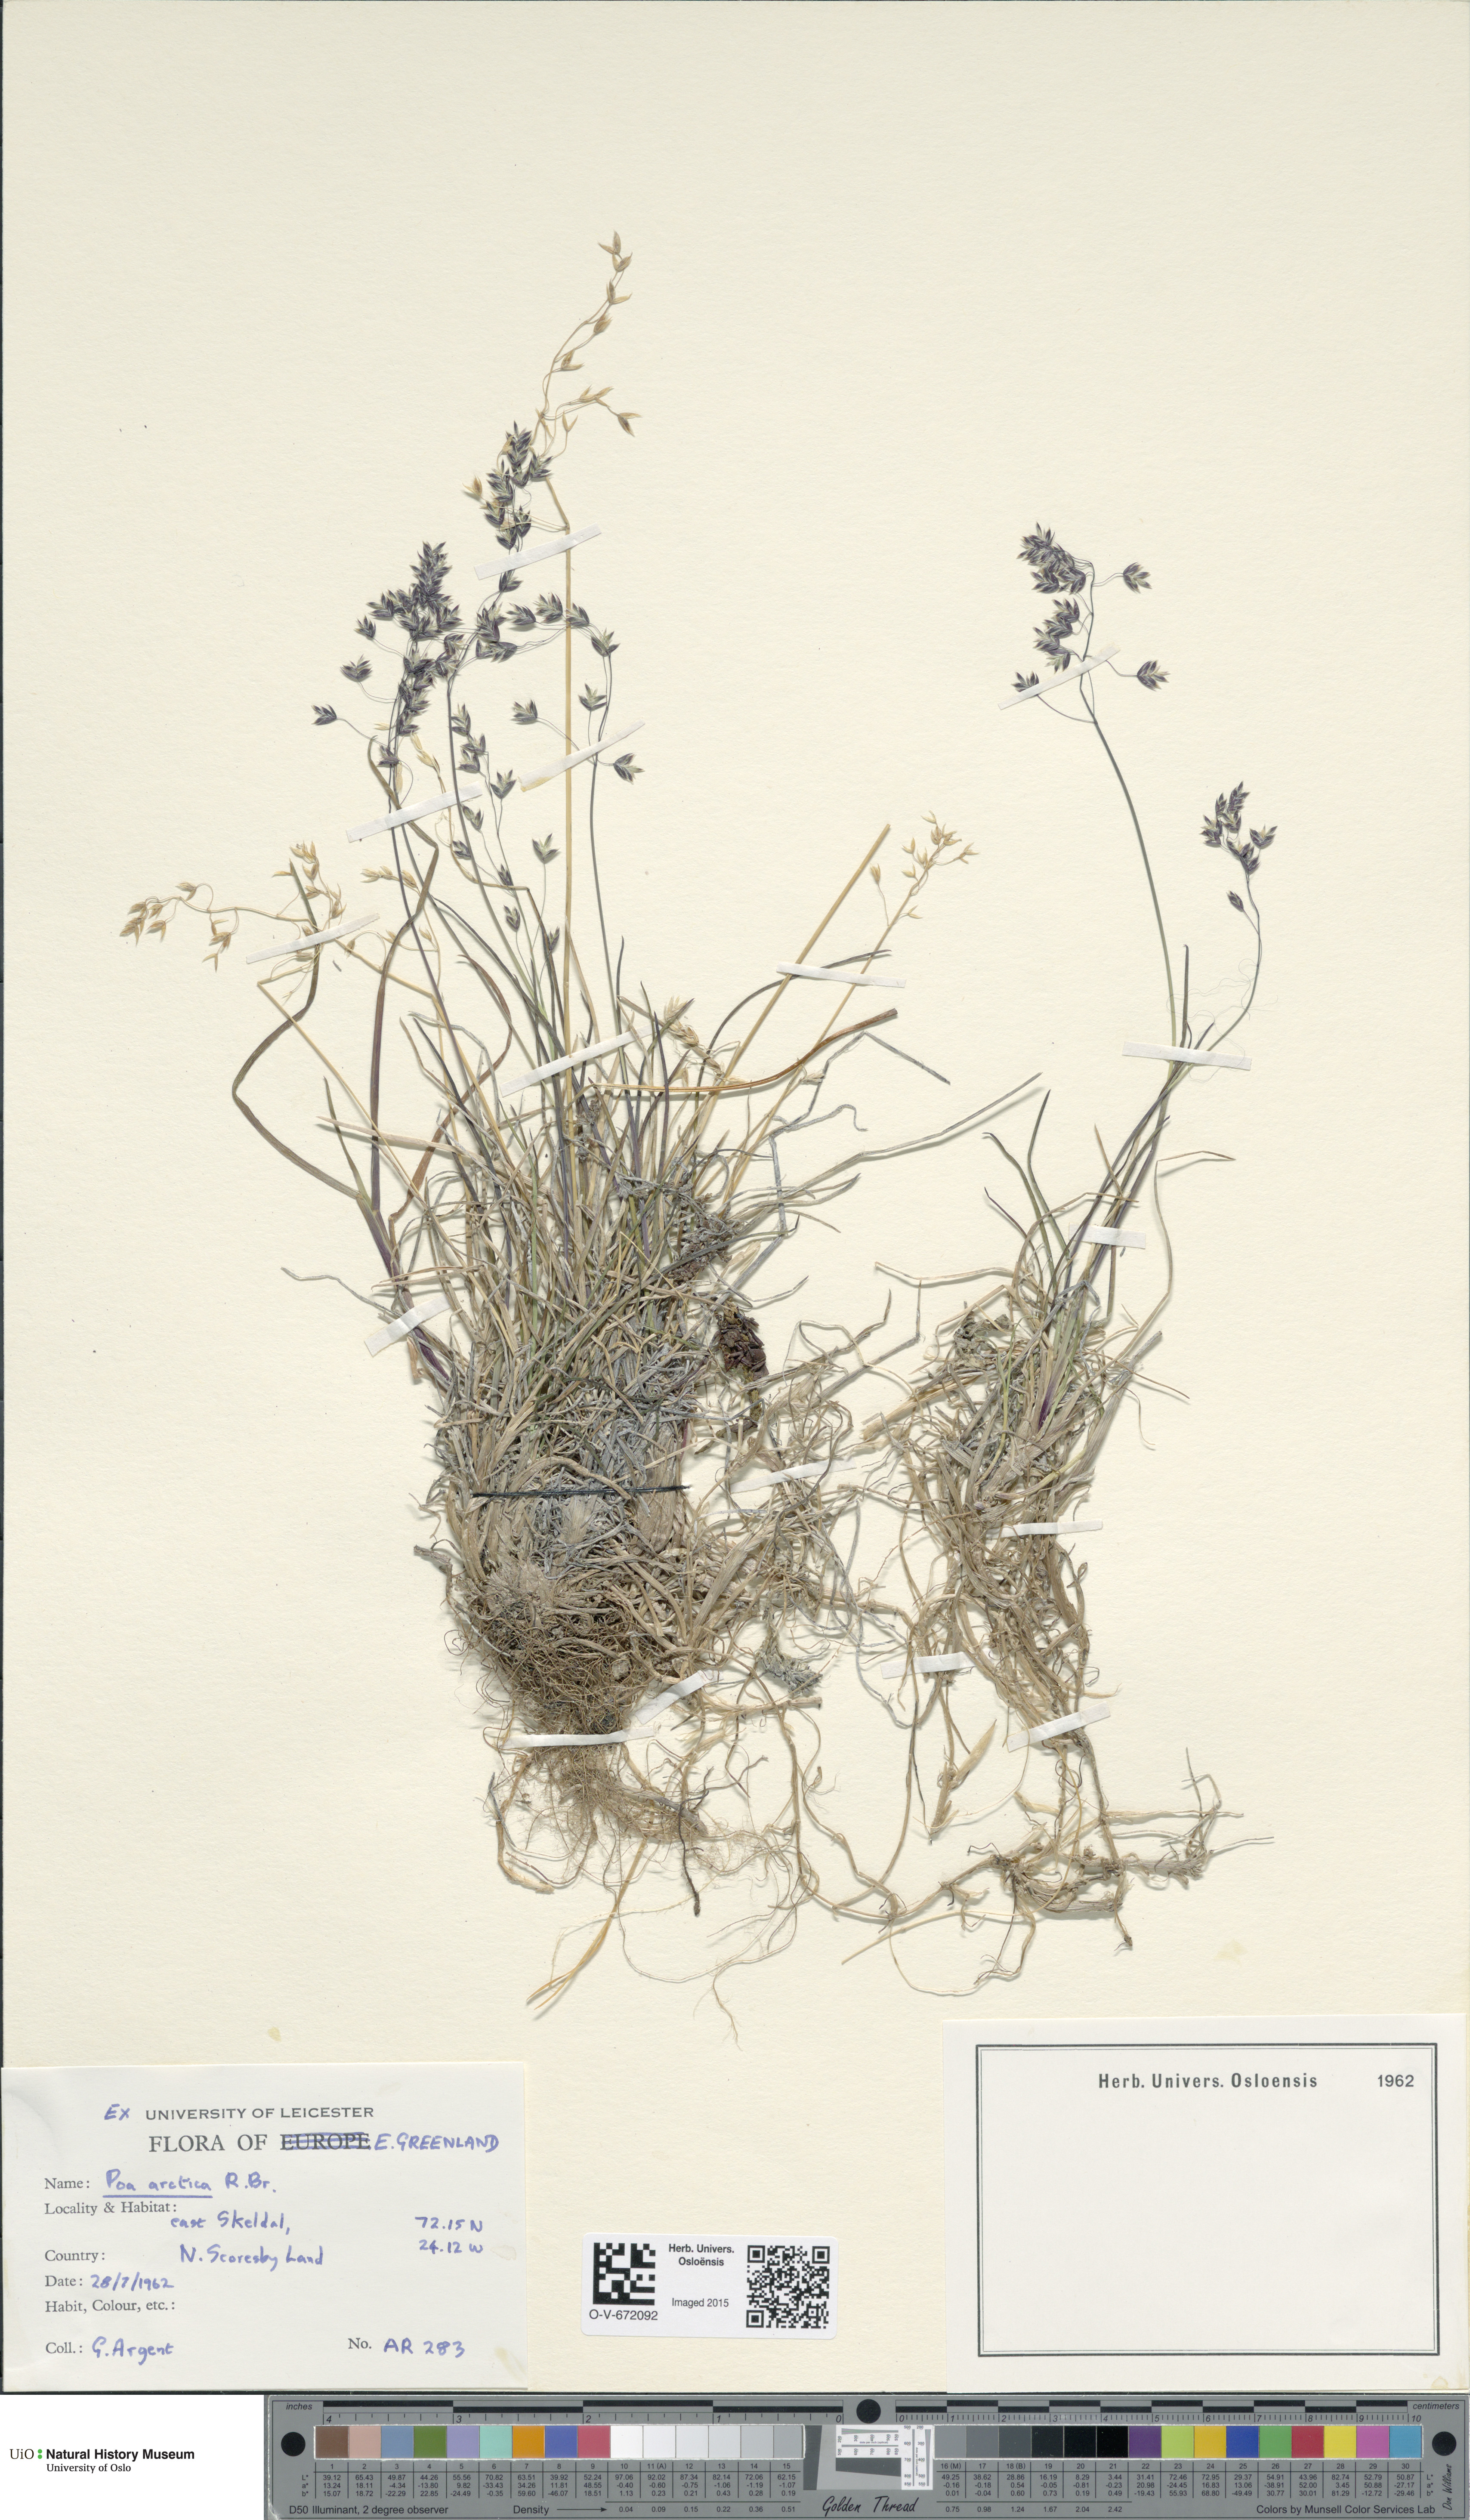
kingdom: Plantae
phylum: Tracheophyta
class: Liliopsida
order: Poales
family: Poaceae
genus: Poa
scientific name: Poa tolmatchewii
